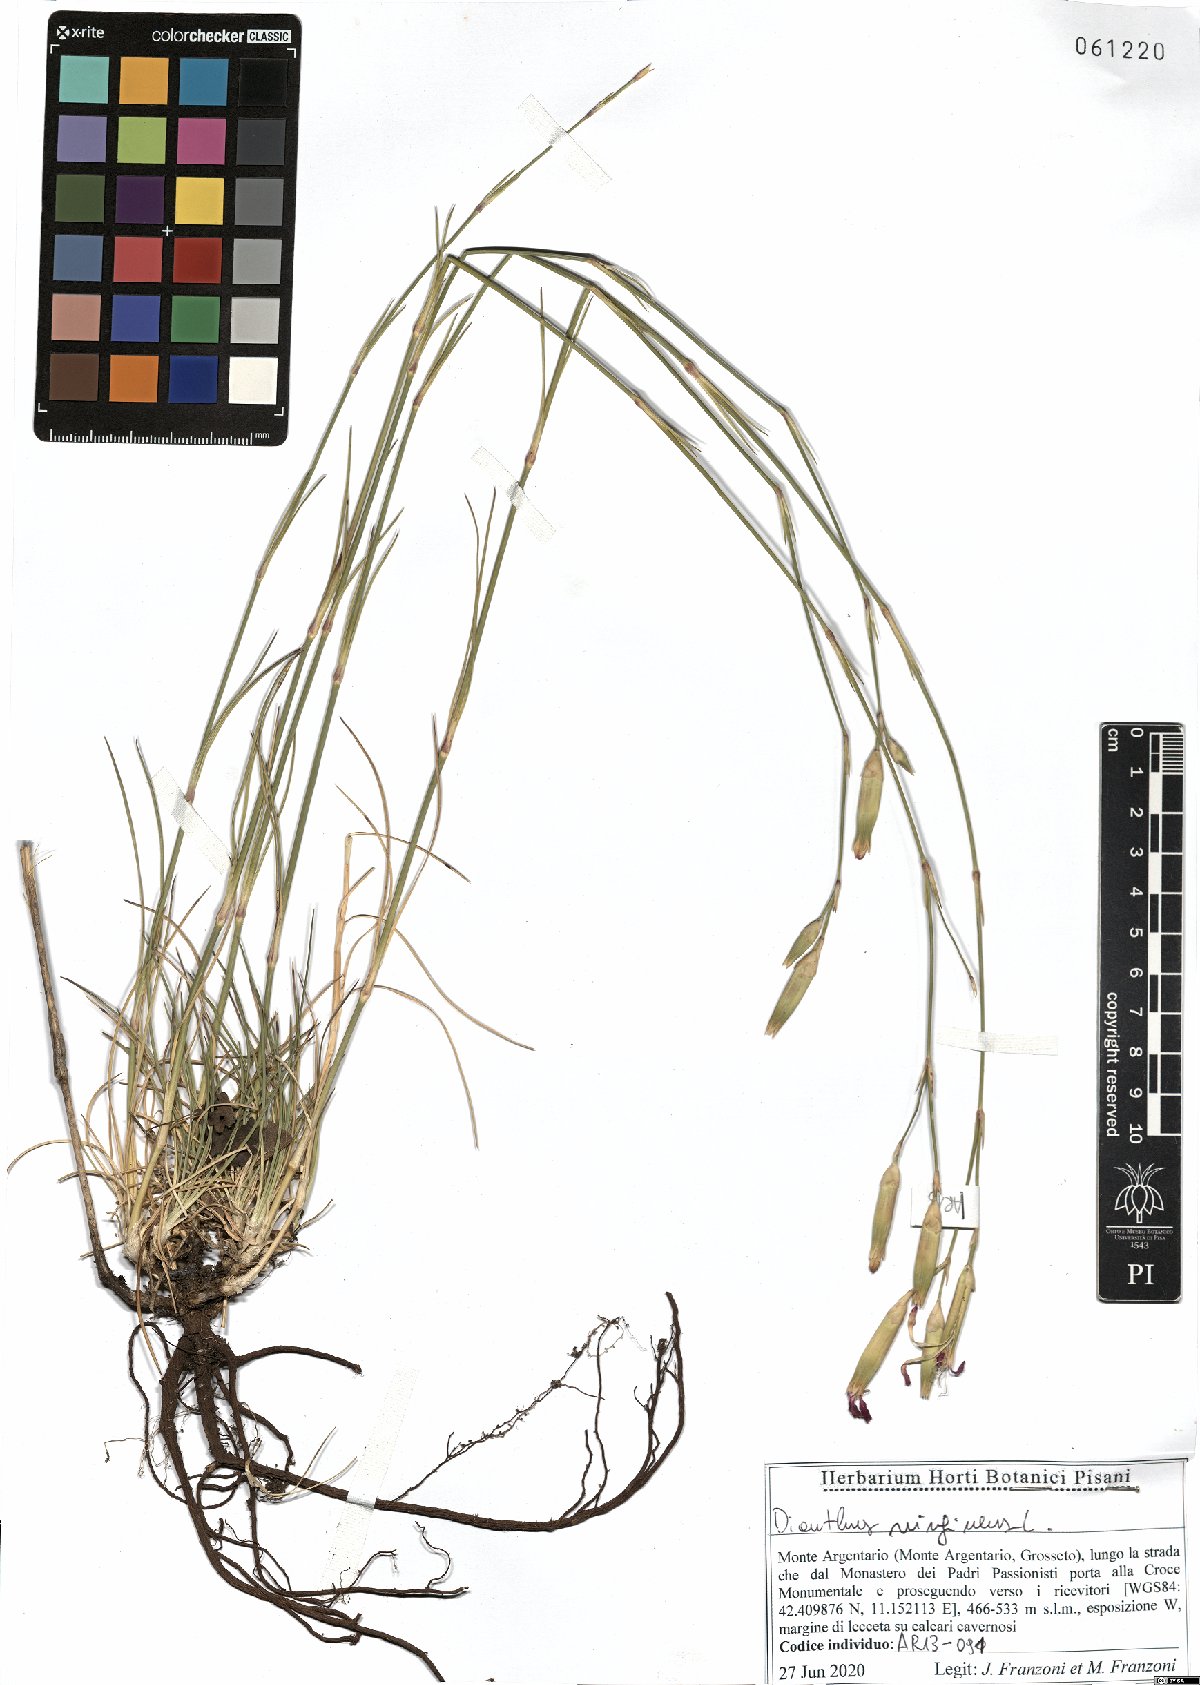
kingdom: Plantae
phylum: Tracheophyta
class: Magnoliopsida
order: Caryophyllales
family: Caryophyllaceae
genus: Dianthus
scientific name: Dianthus virgineus
